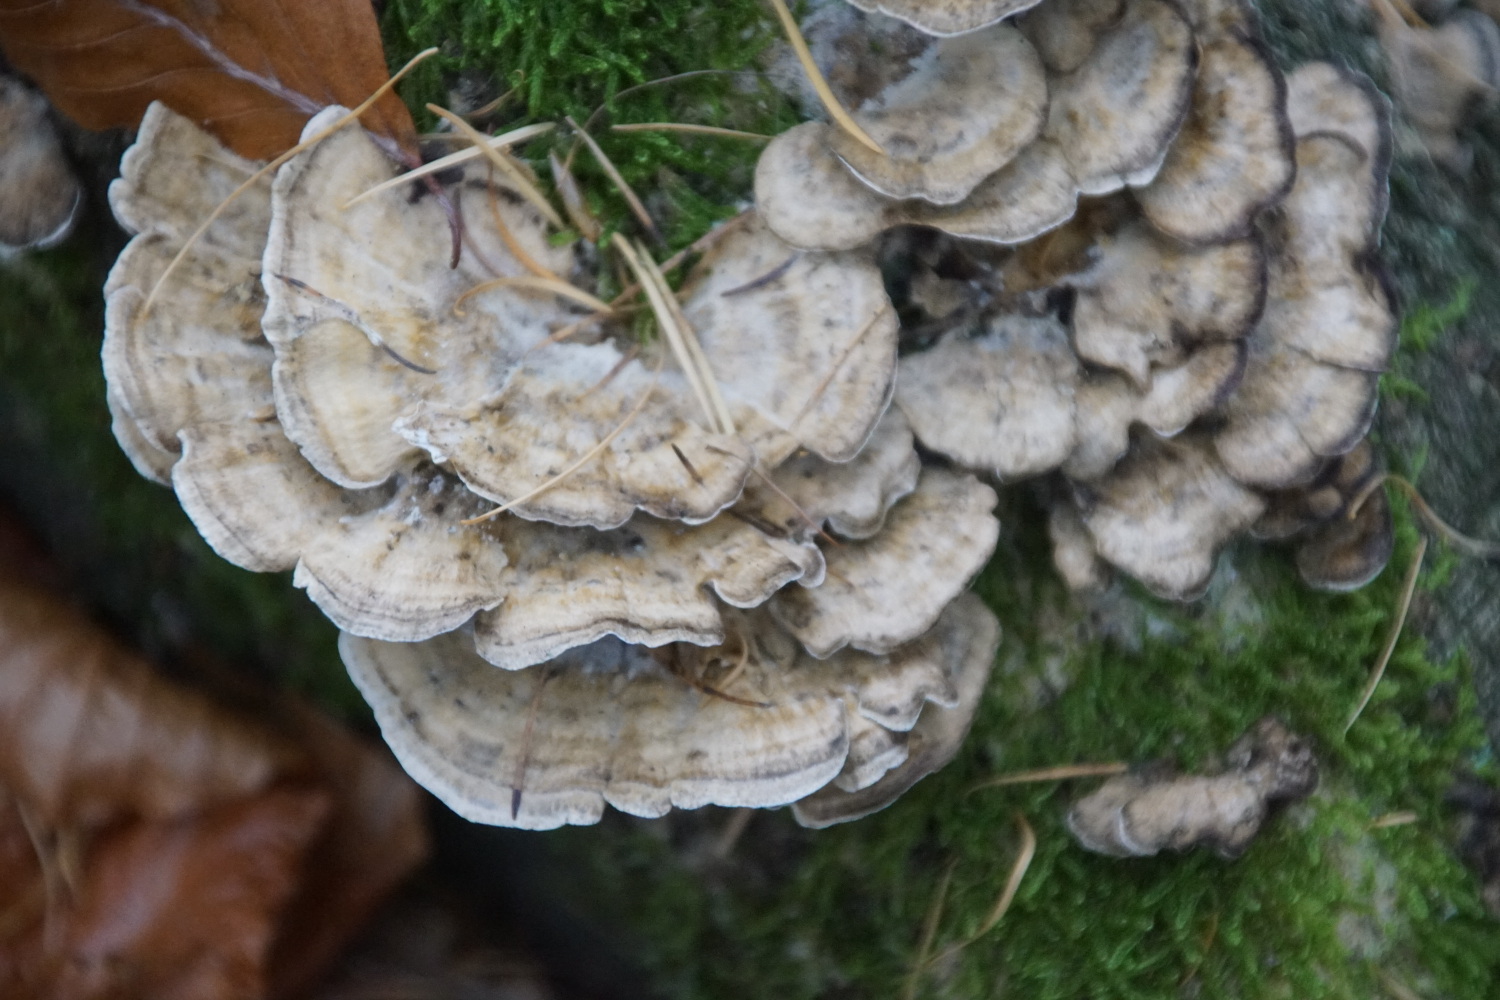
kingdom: Fungi
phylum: Basidiomycota
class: Agaricomycetes
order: Polyporales
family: Phanerochaetaceae
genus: Bjerkandera
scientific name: Bjerkandera adusta
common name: sveden sodporesvamp
